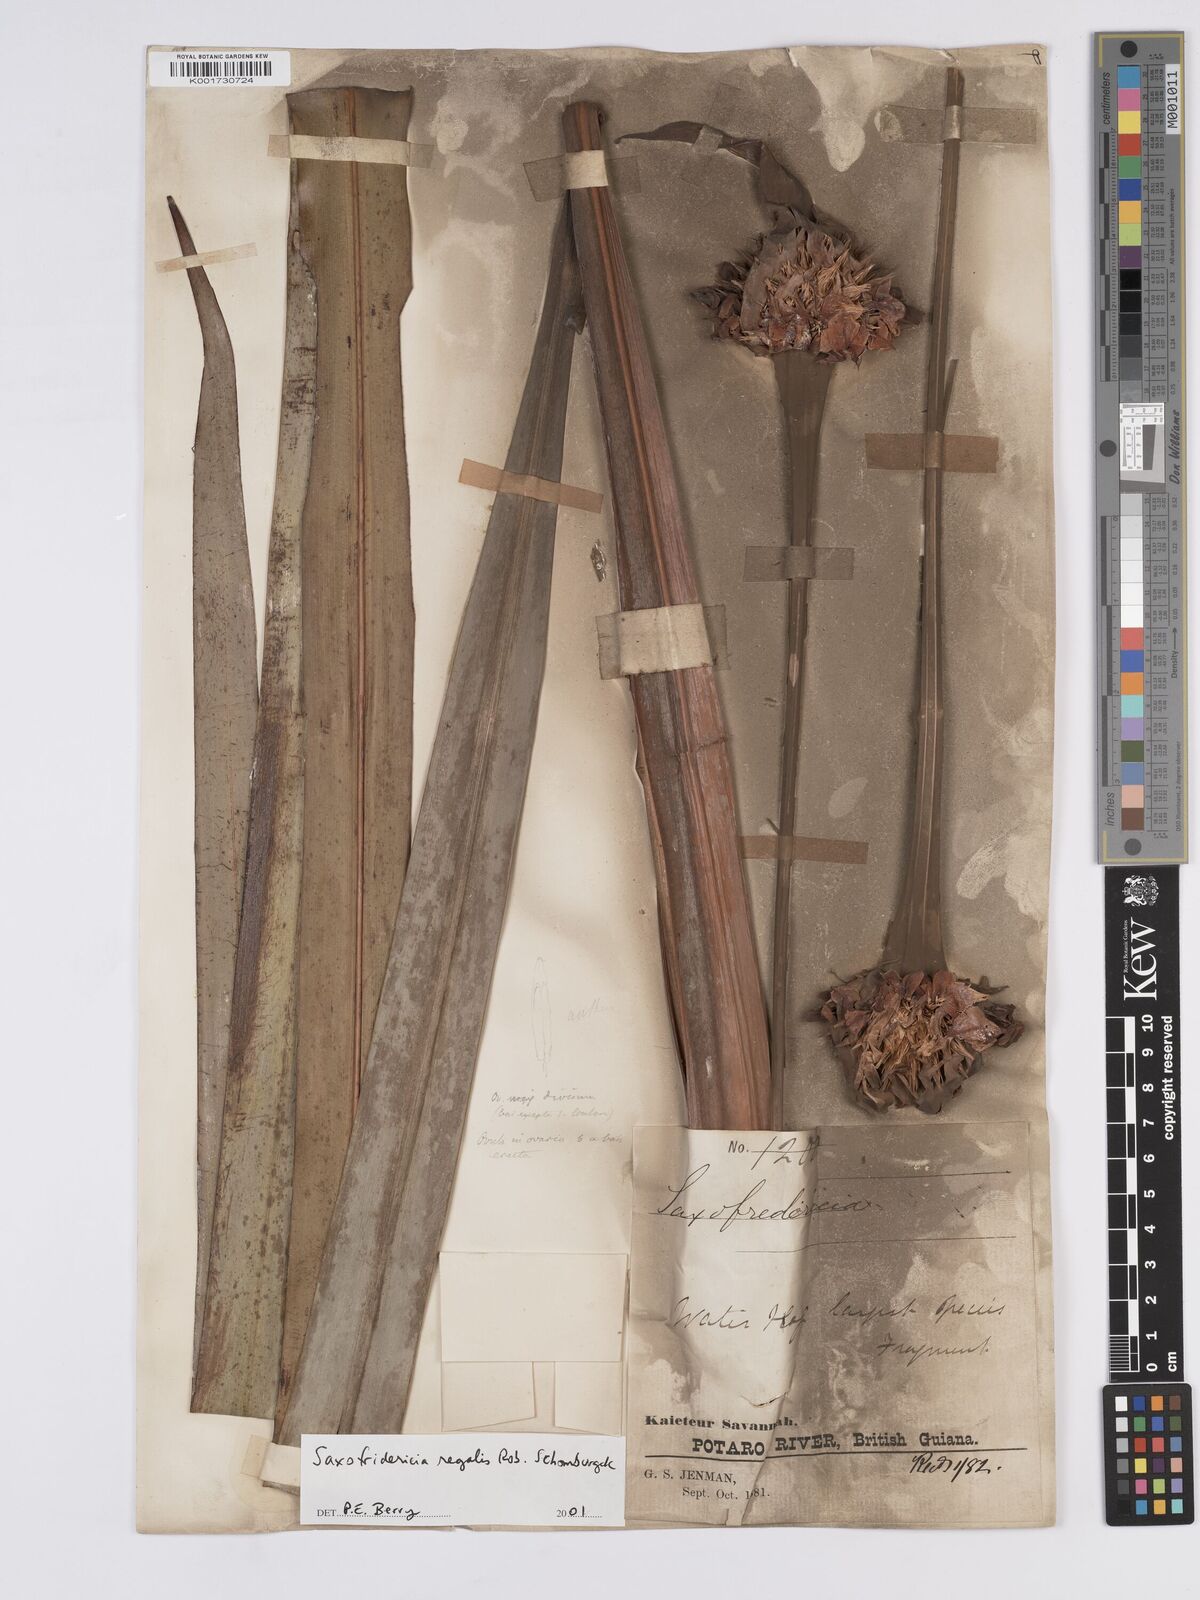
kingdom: Plantae
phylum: Tracheophyta
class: Liliopsida
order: Poales
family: Rapateaceae
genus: Saxofridericia
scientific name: Saxofridericia regalis
